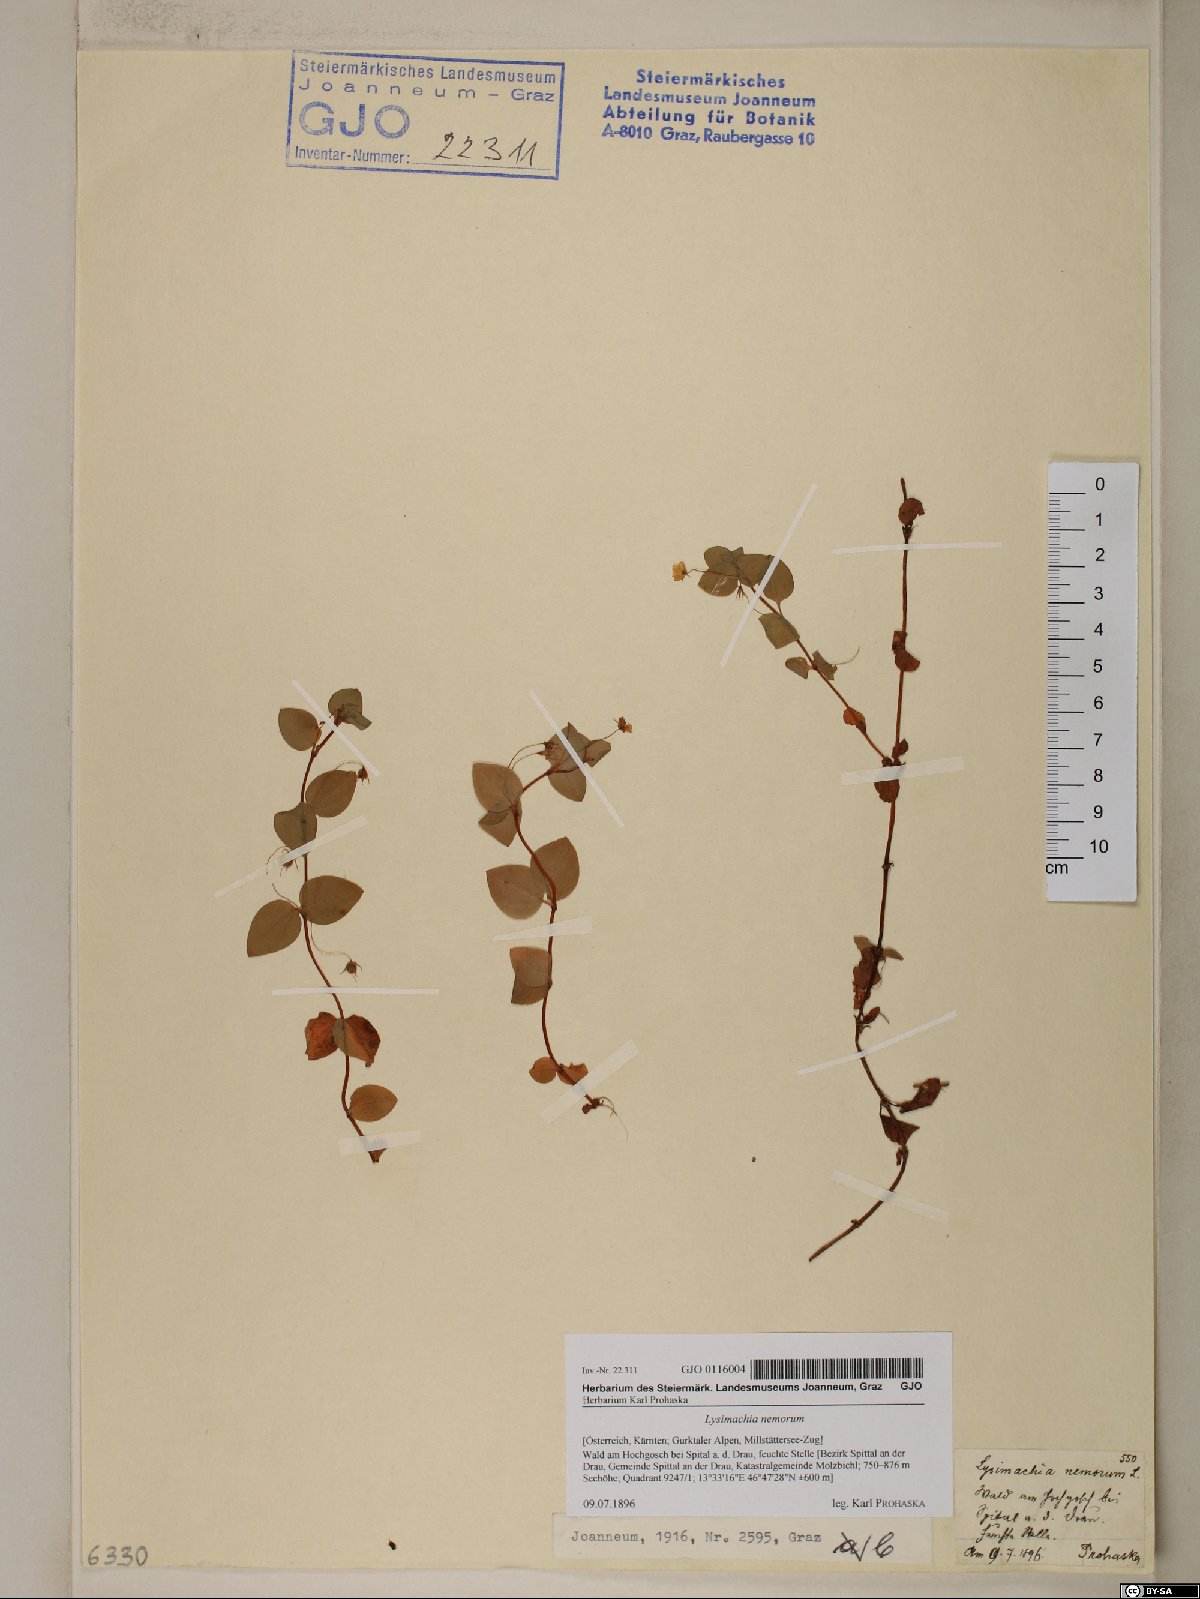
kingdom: Plantae
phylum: Tracheophyta
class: Magnoliopsida
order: Ericales
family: Primulaceae
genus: Lysimachia
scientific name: Lysimachia nemorum
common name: Yellow pimpernel
